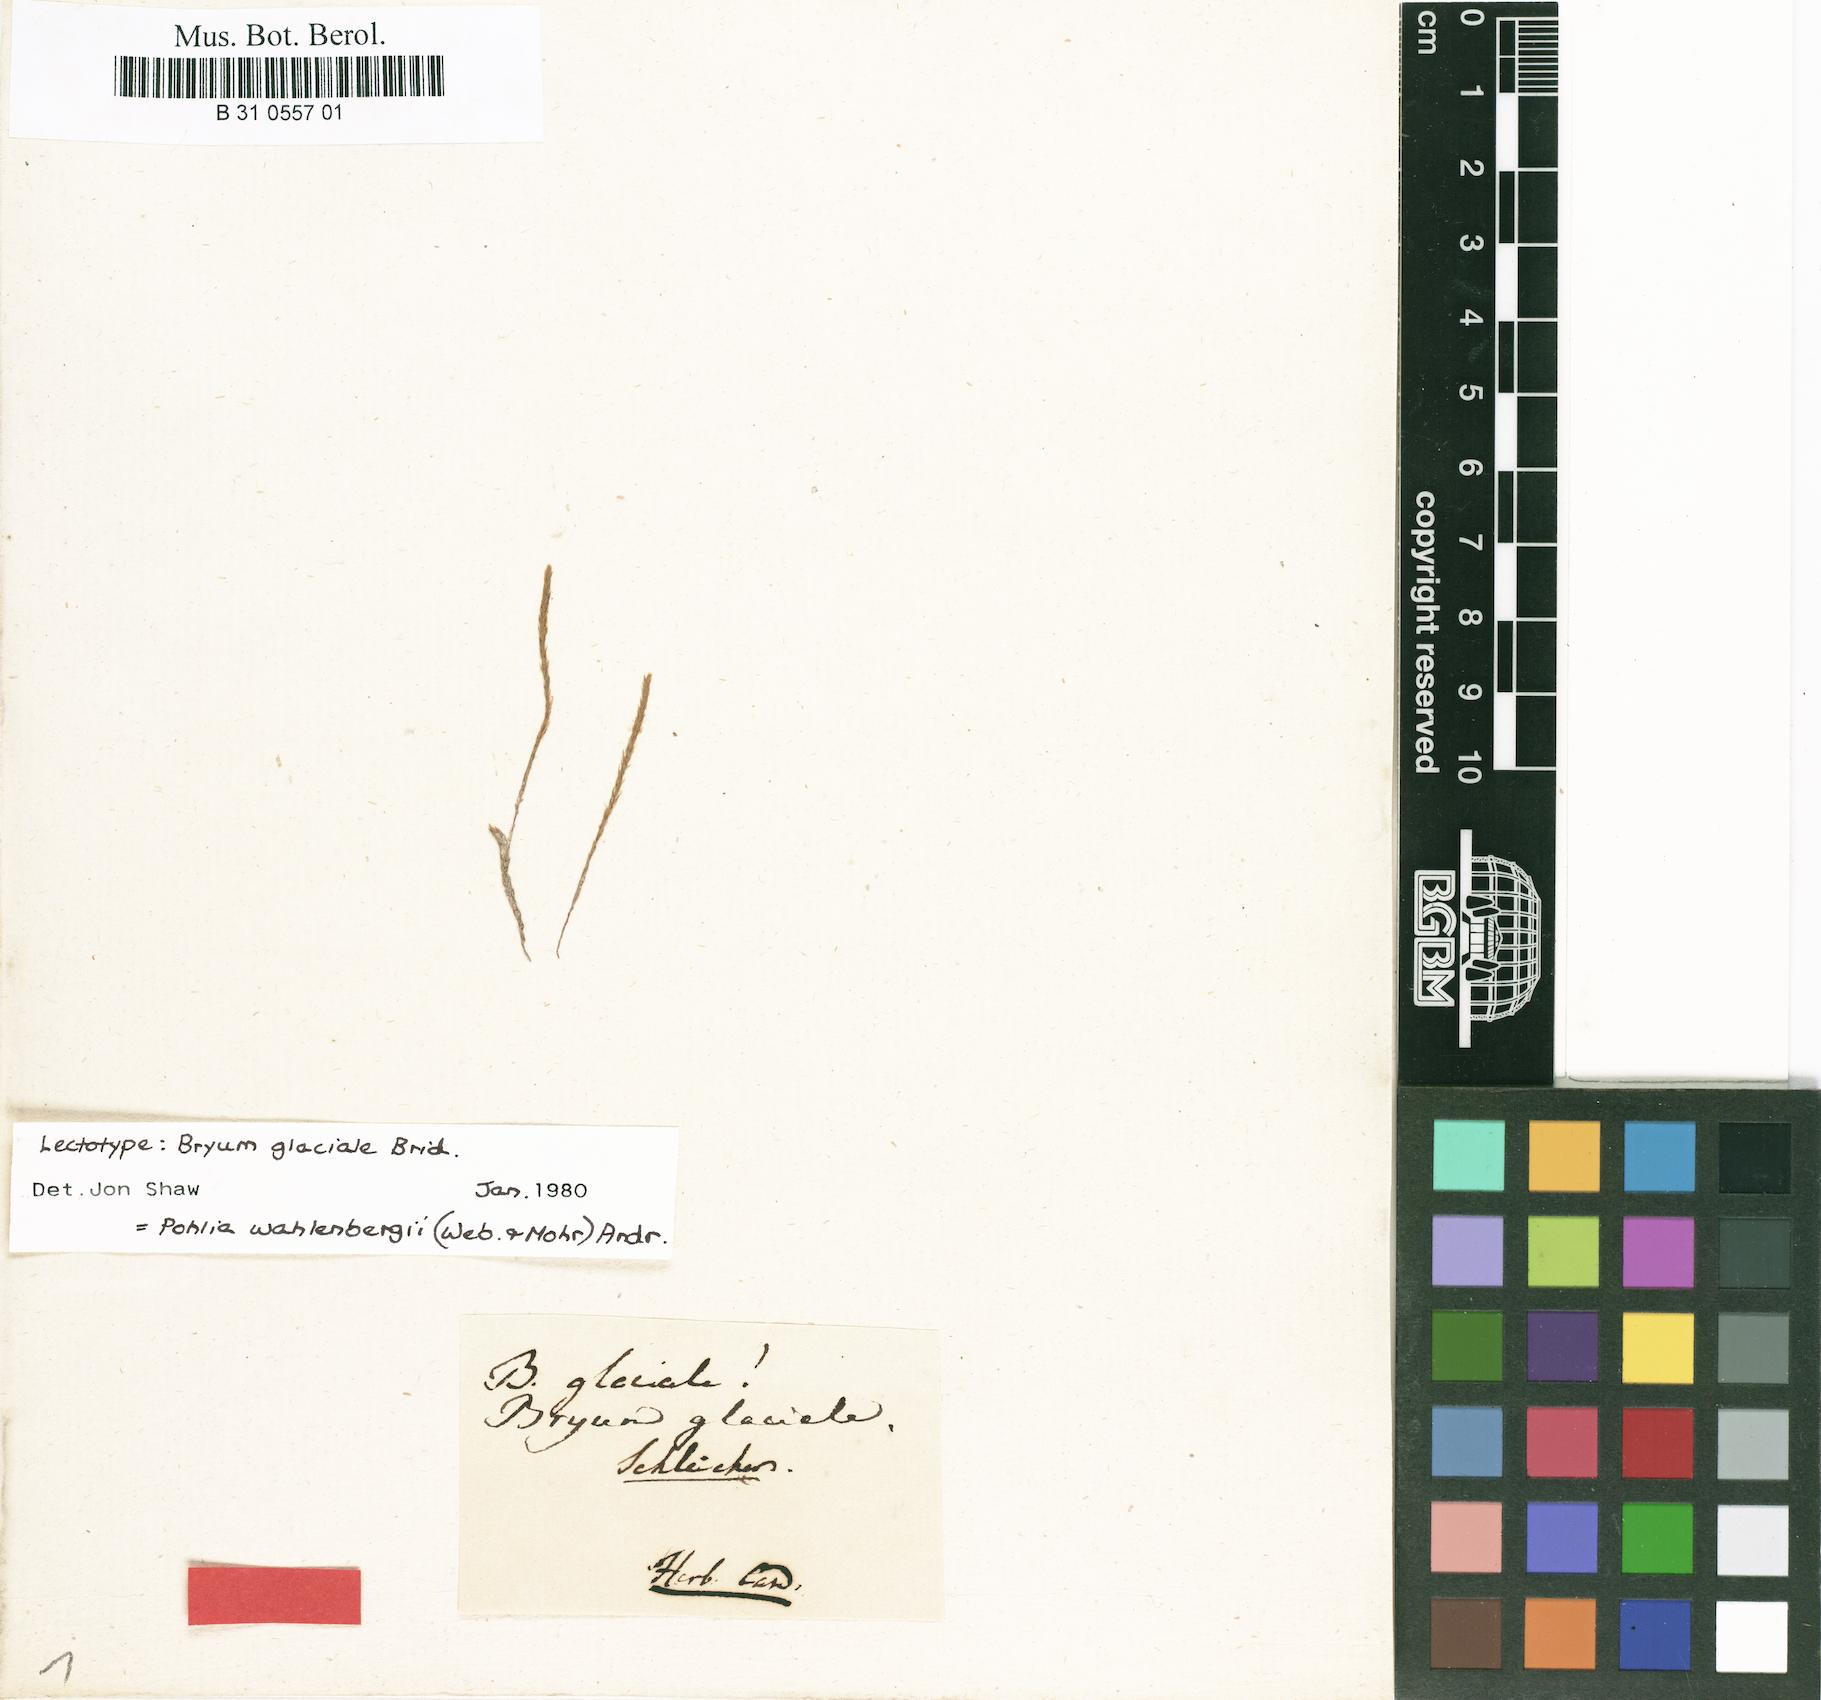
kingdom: Plantae
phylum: Bryophyta
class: Bryopsida
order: Bryales
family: Mniaceae
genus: Pohlia
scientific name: Pohlia wahlenbergii
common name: Wahlenberg's nodding moss
